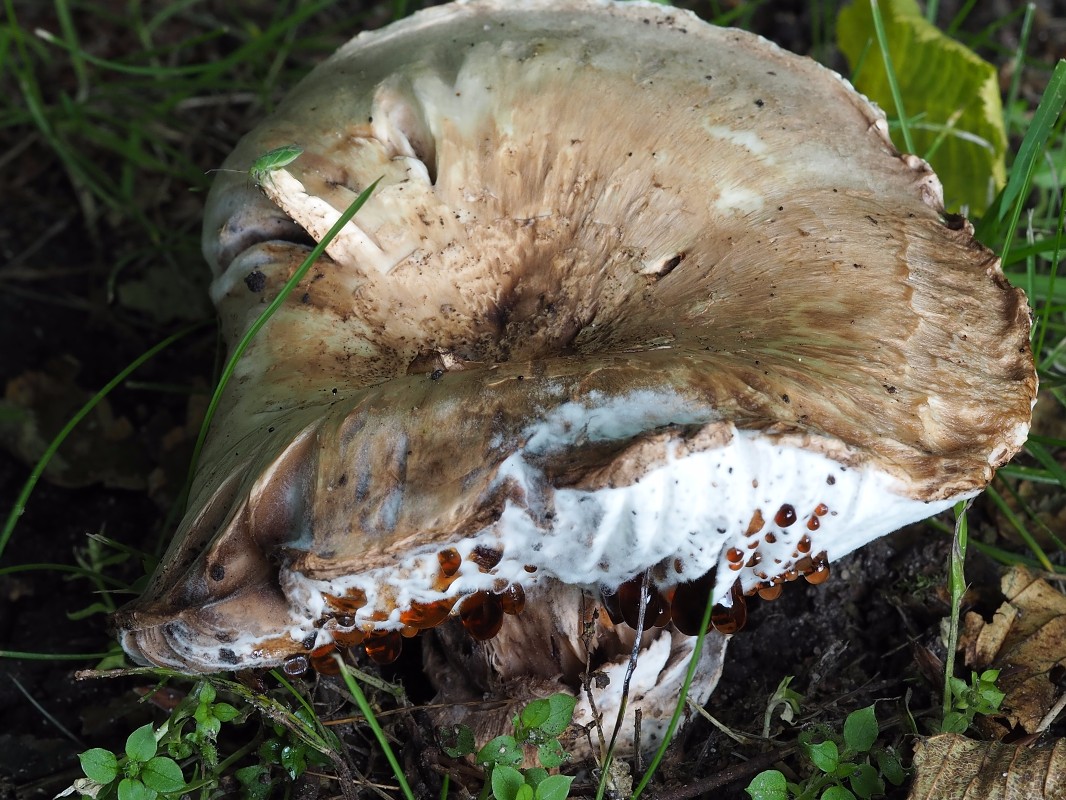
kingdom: Fungi
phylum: Ascomycota
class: Sordariomycetes
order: Hypocreales
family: Hypocreaceae
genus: Hypomyces
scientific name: Hypomyces
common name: snylteskorpe
